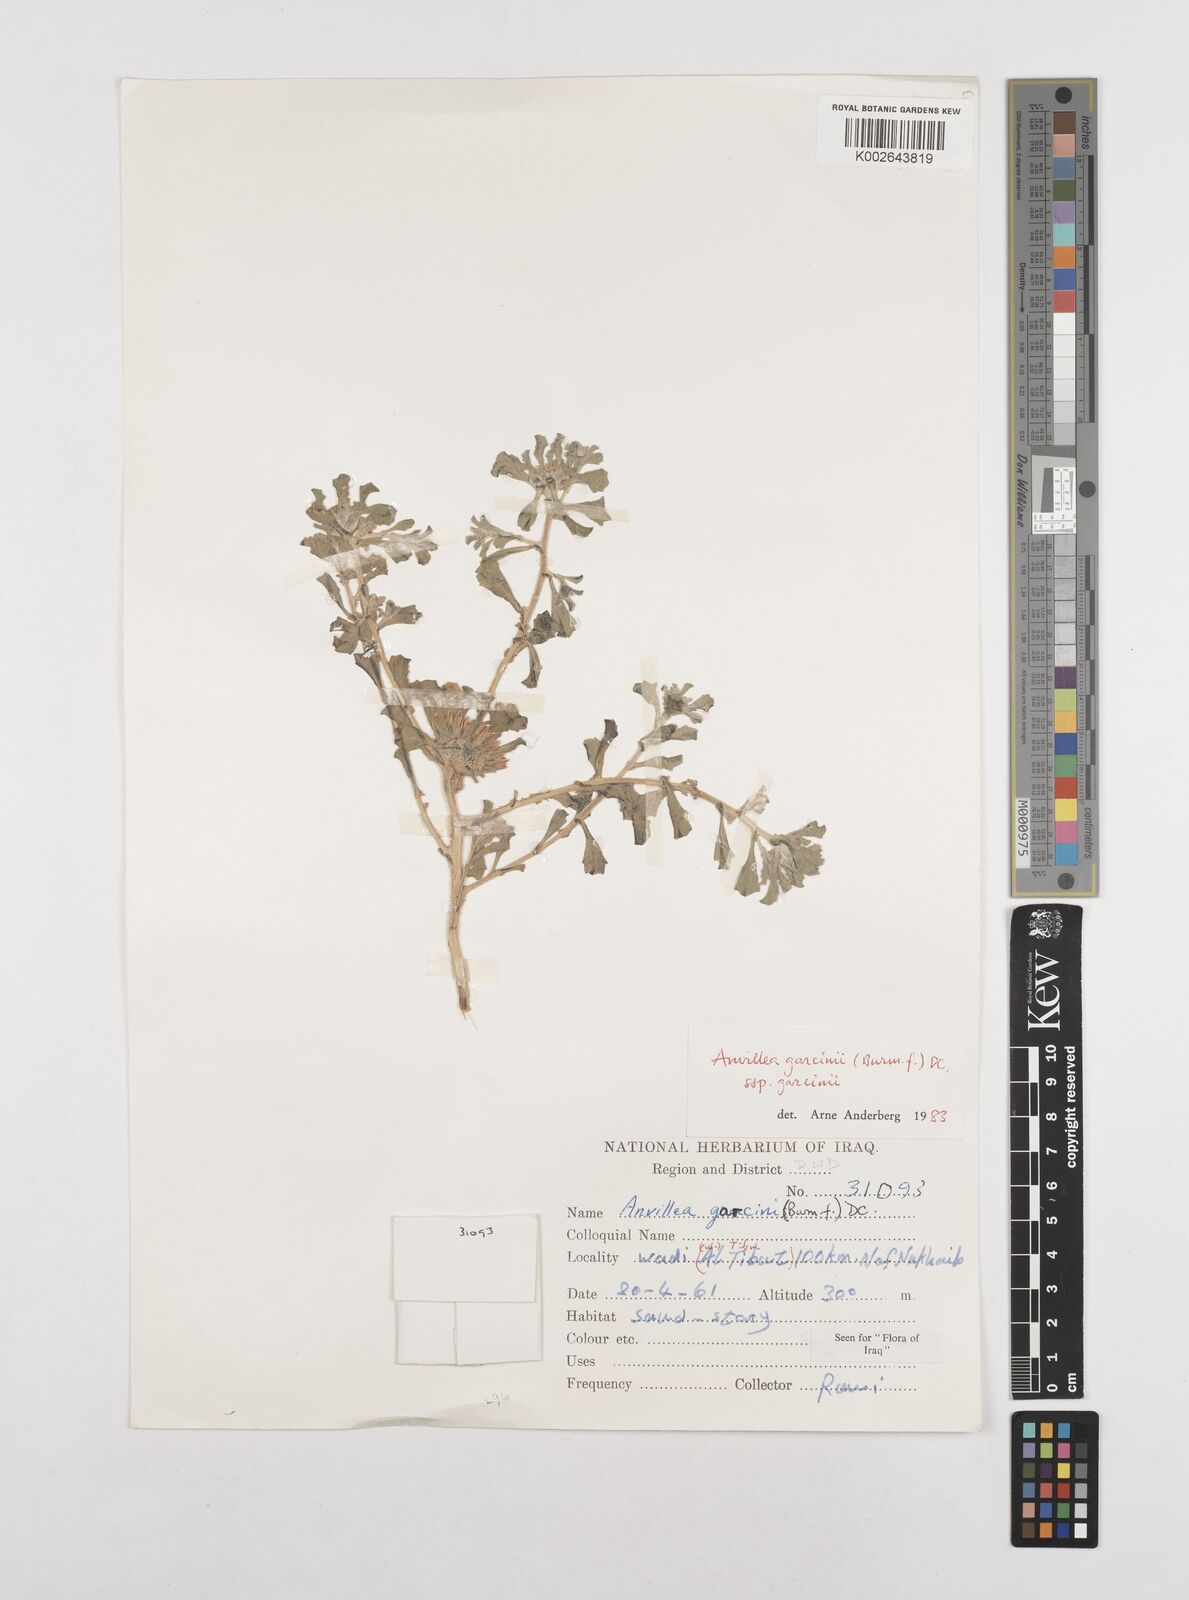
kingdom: Plantae
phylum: Tracheophyta
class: Magnoliopsida
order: Asterales
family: Asteraceae
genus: Anvillea
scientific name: Anvillea
